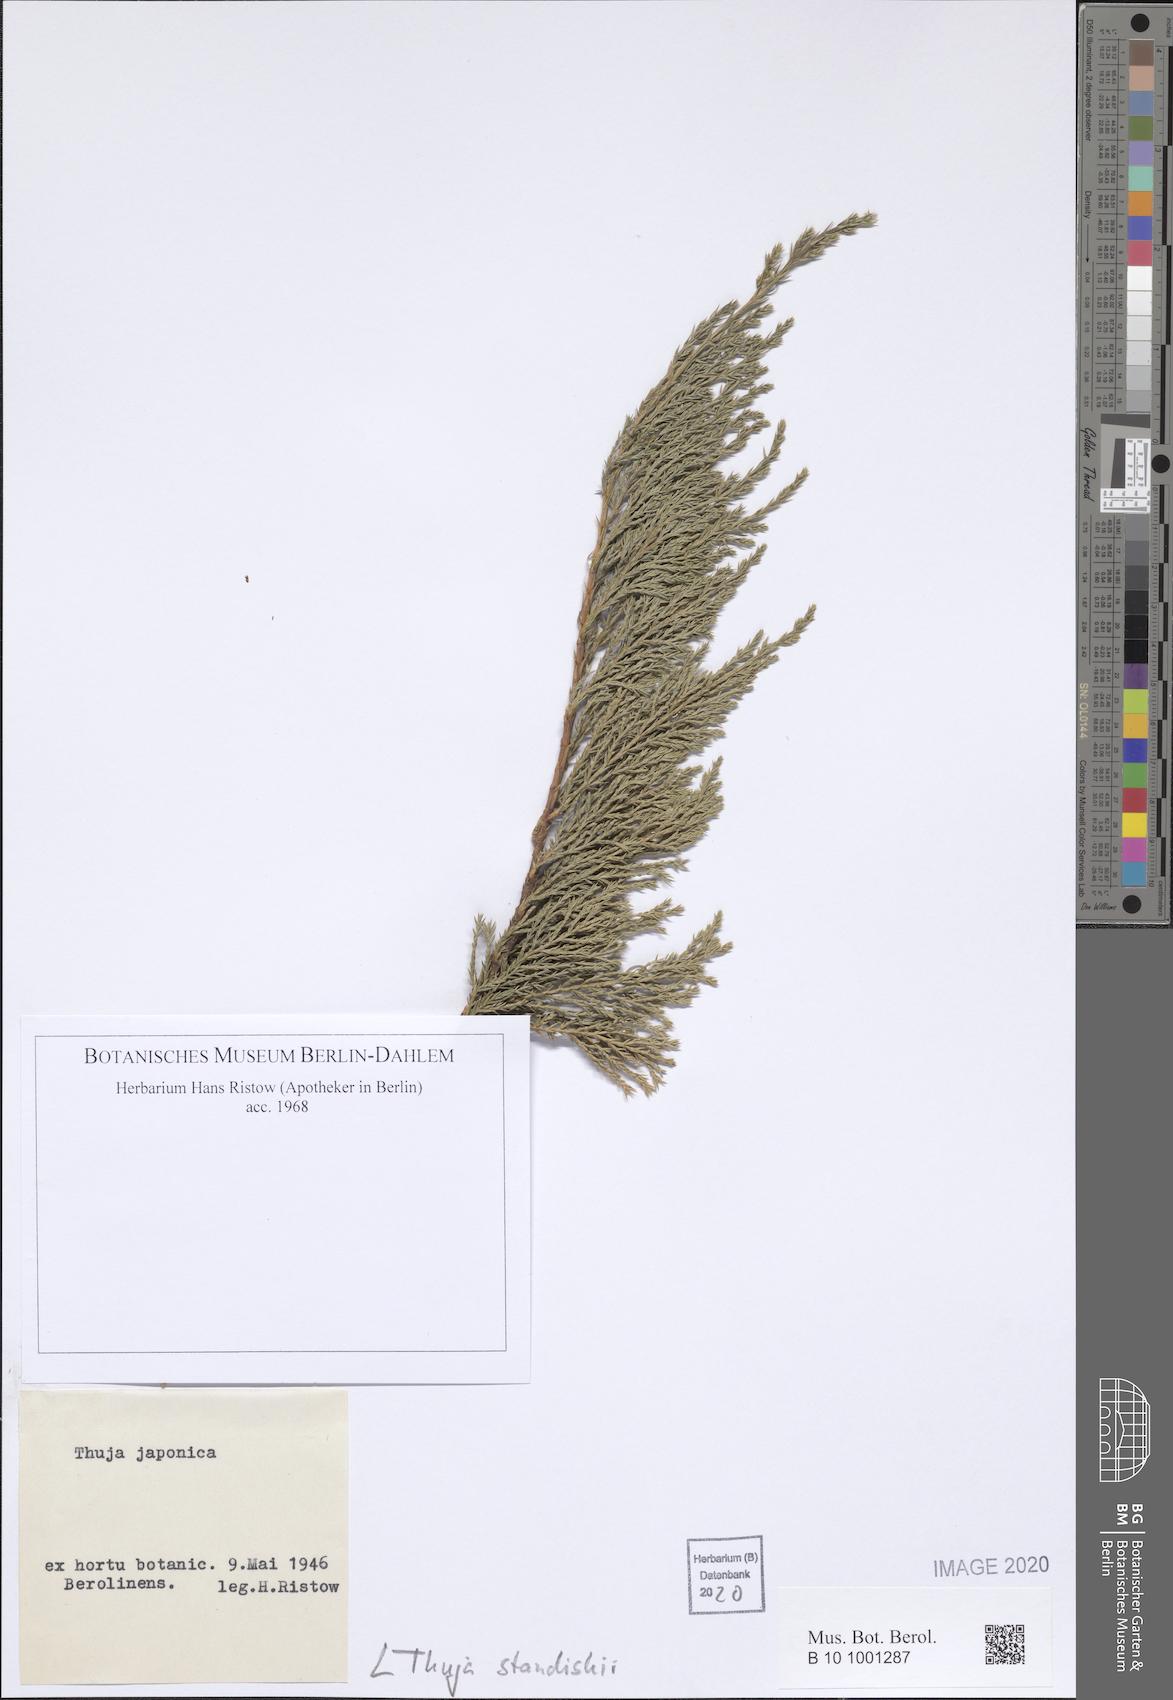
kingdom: Plantae
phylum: Tracheophyta
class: Pinopsida
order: Pinales
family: Cupressaceae
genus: Thuja
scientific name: Thuja standishii
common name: Japanese arbor-vitae
